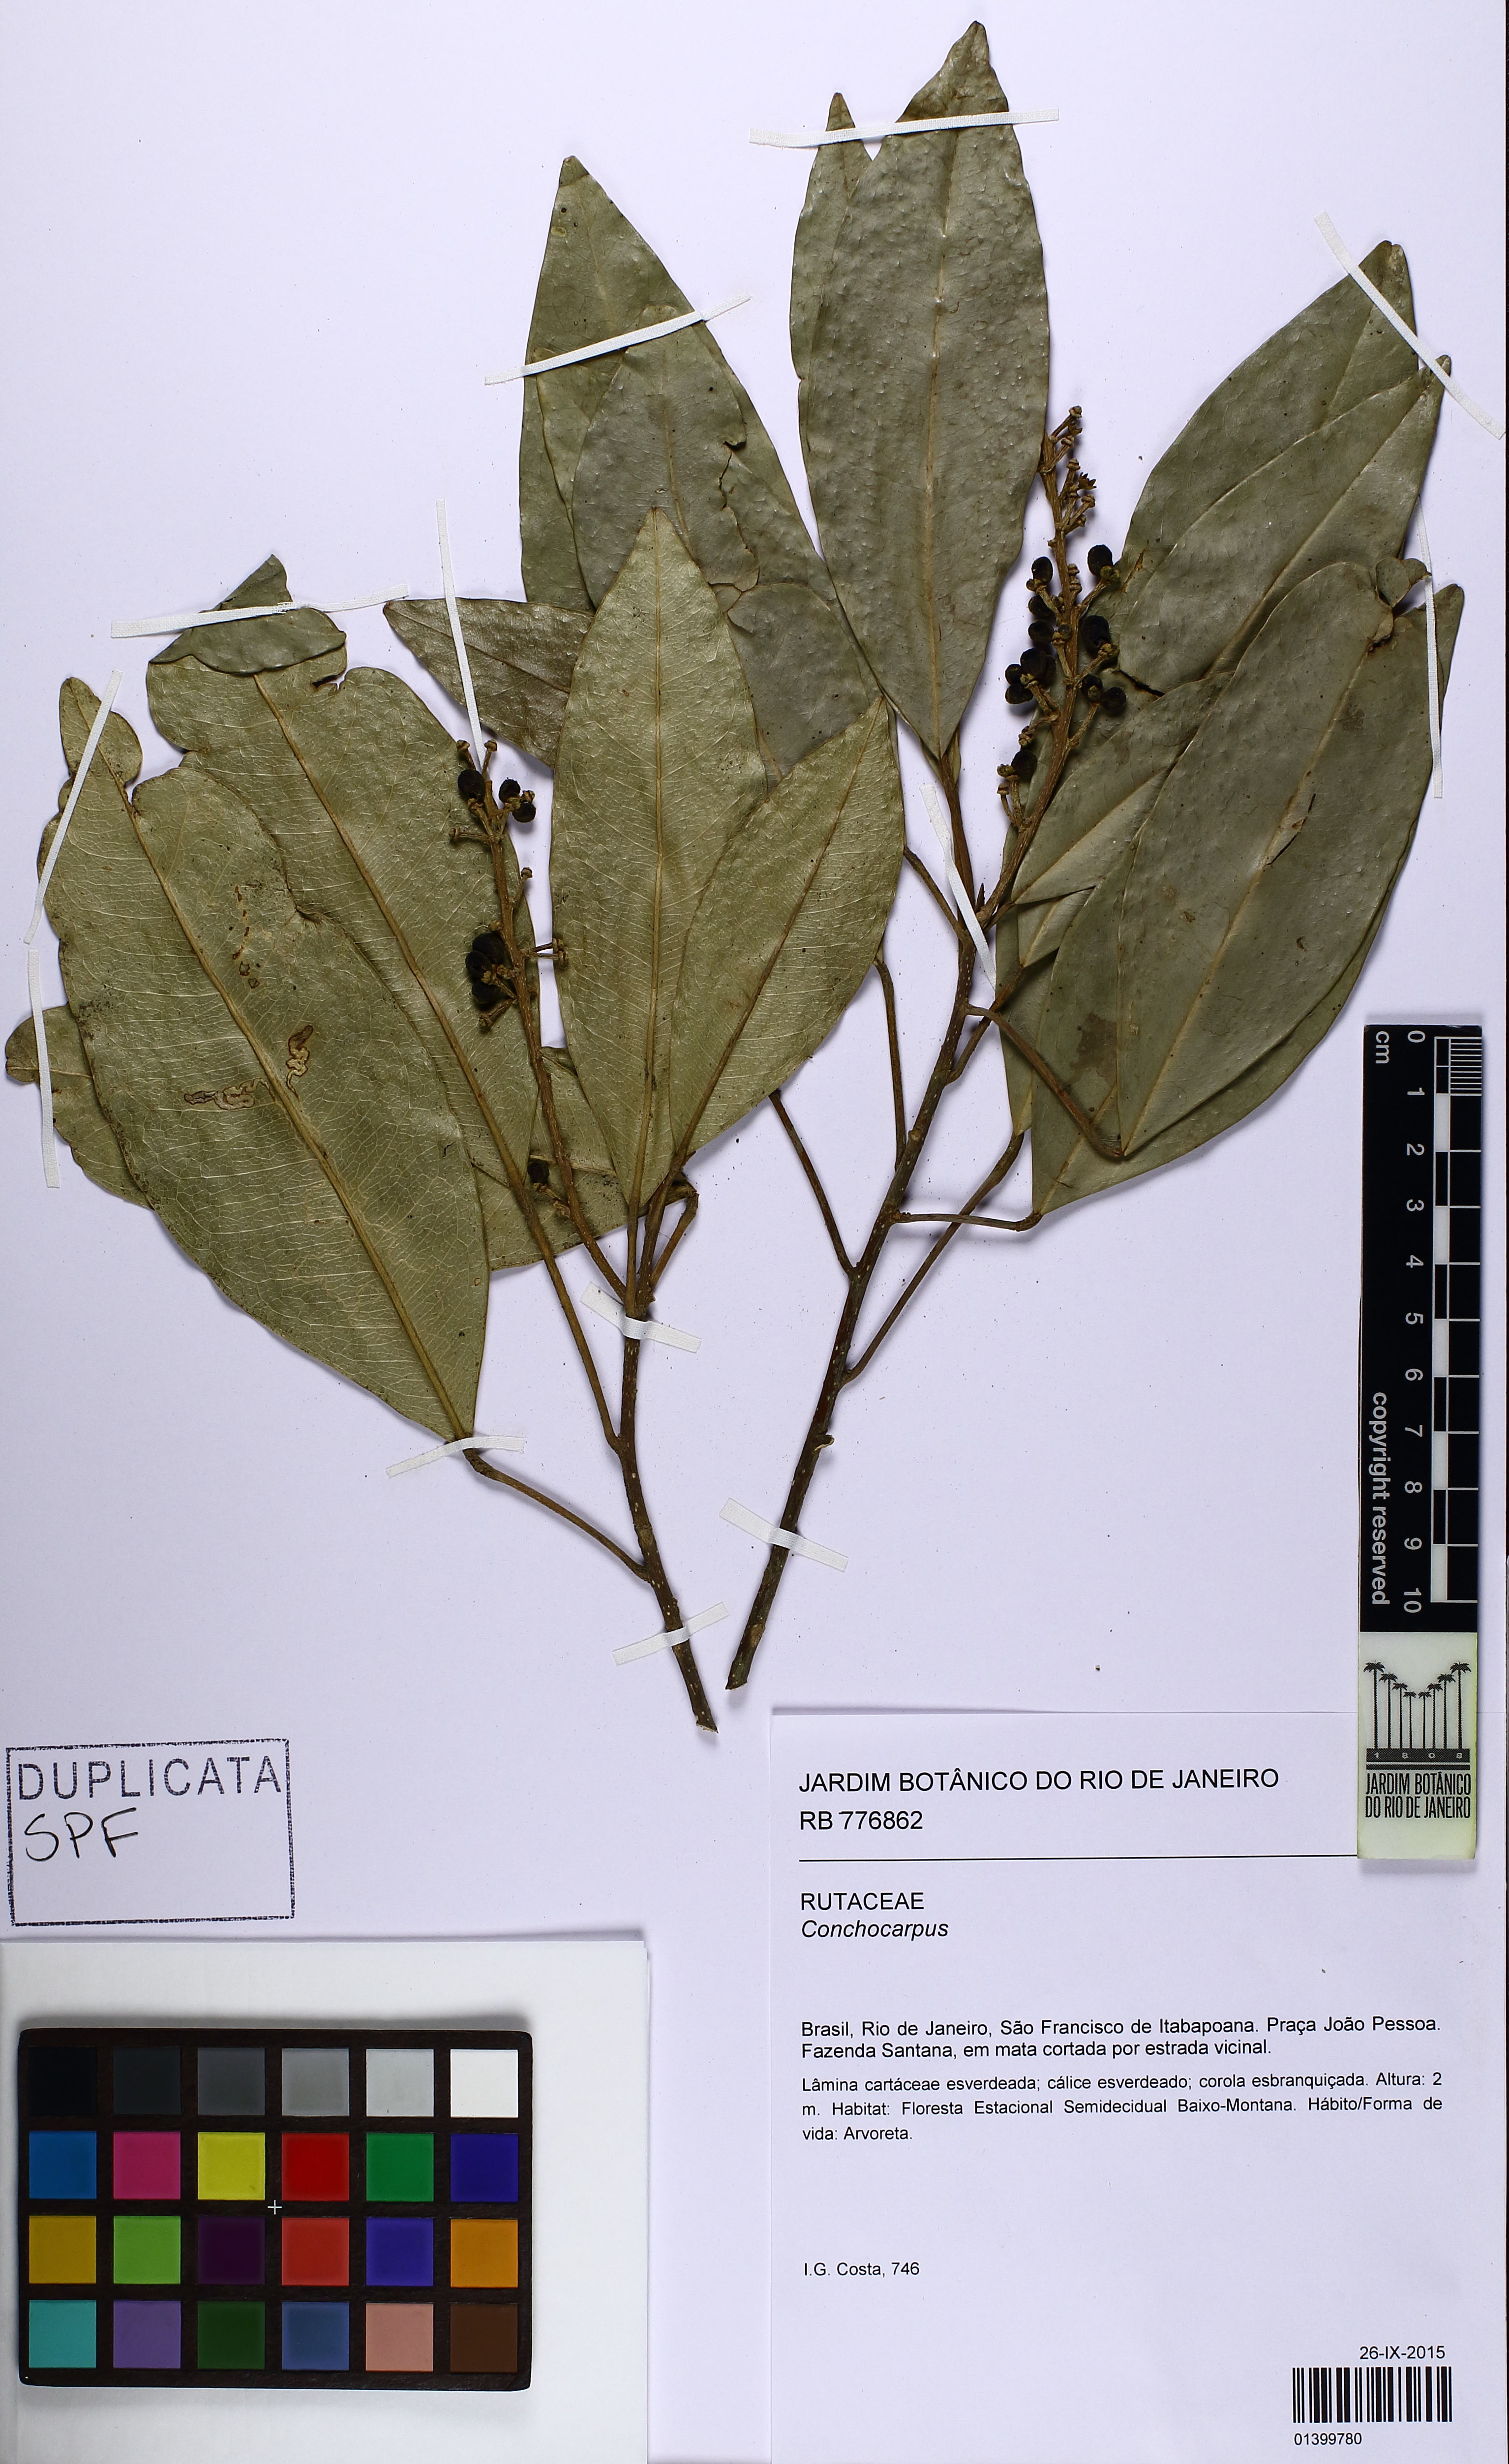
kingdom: Plantae
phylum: Tracheophyta
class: Magnoliopsida
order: Sapindales
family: Rutaceae
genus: Conchocarpus
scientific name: Conchocarpus
